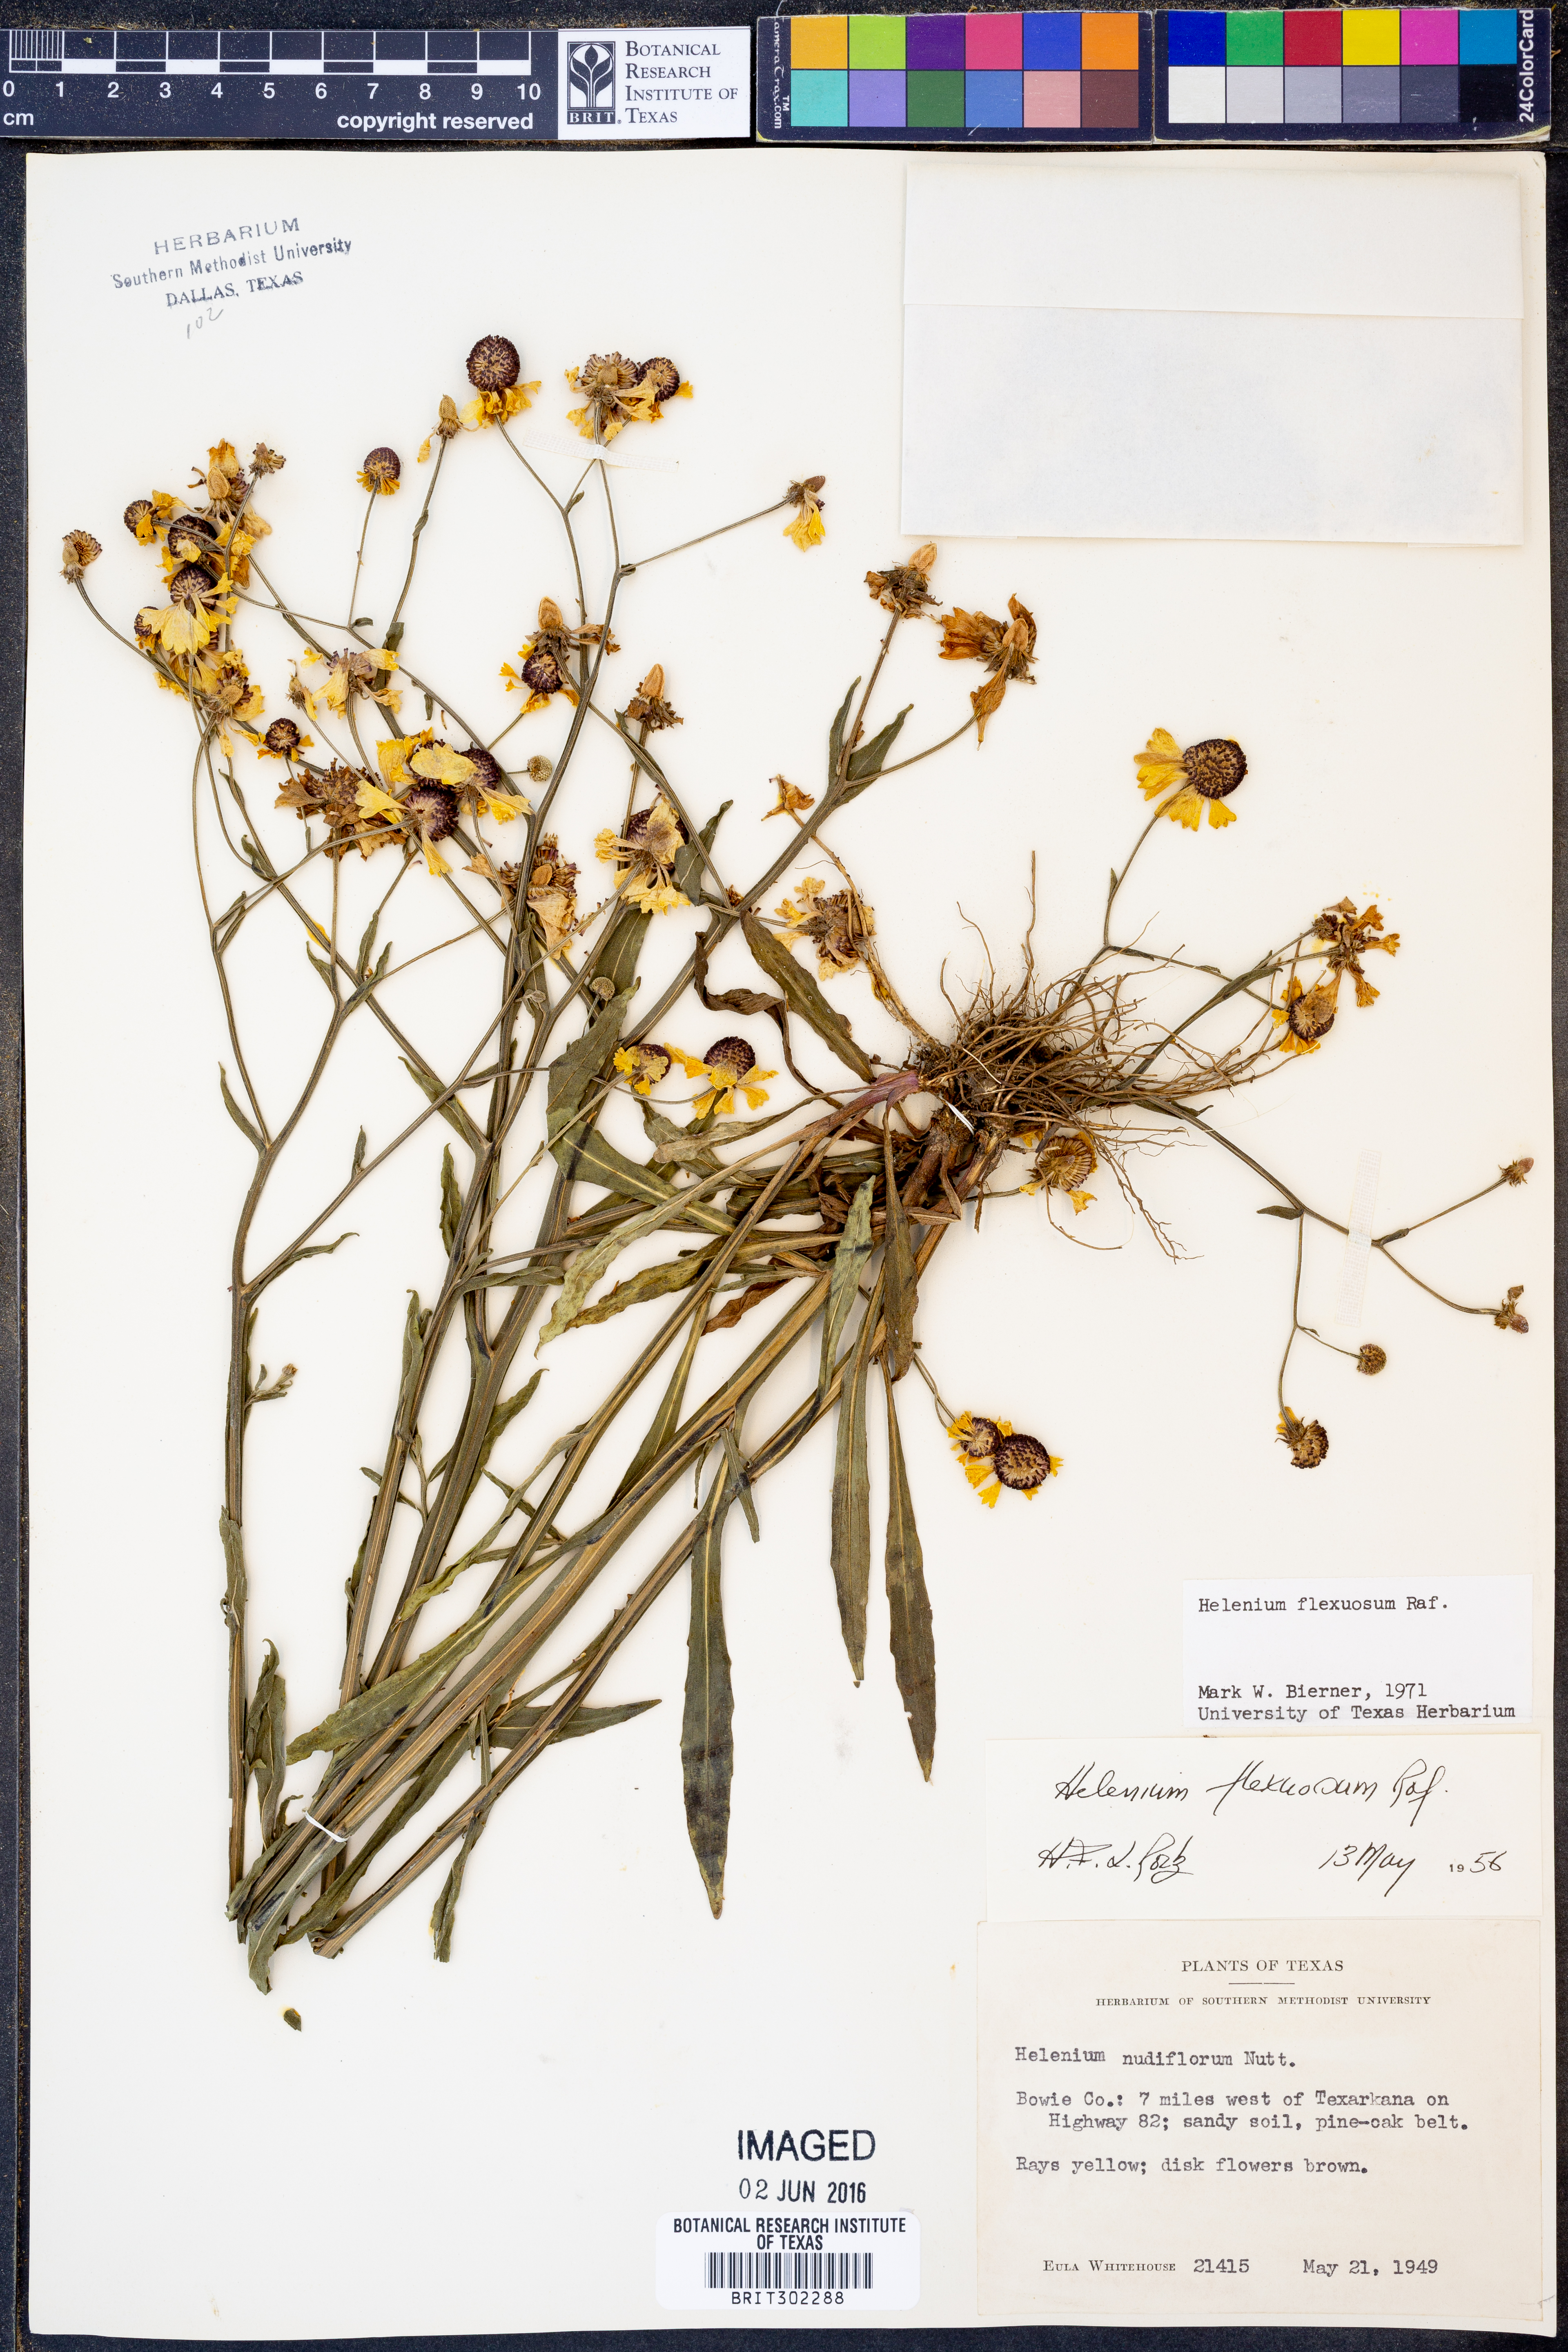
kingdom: Plantae
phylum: Tracheophyta
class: Magnoliopsida
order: Asterales
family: Asteraceae
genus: Helenium
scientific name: Helenium flexuosum
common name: Naked-flowered sneezeweed
